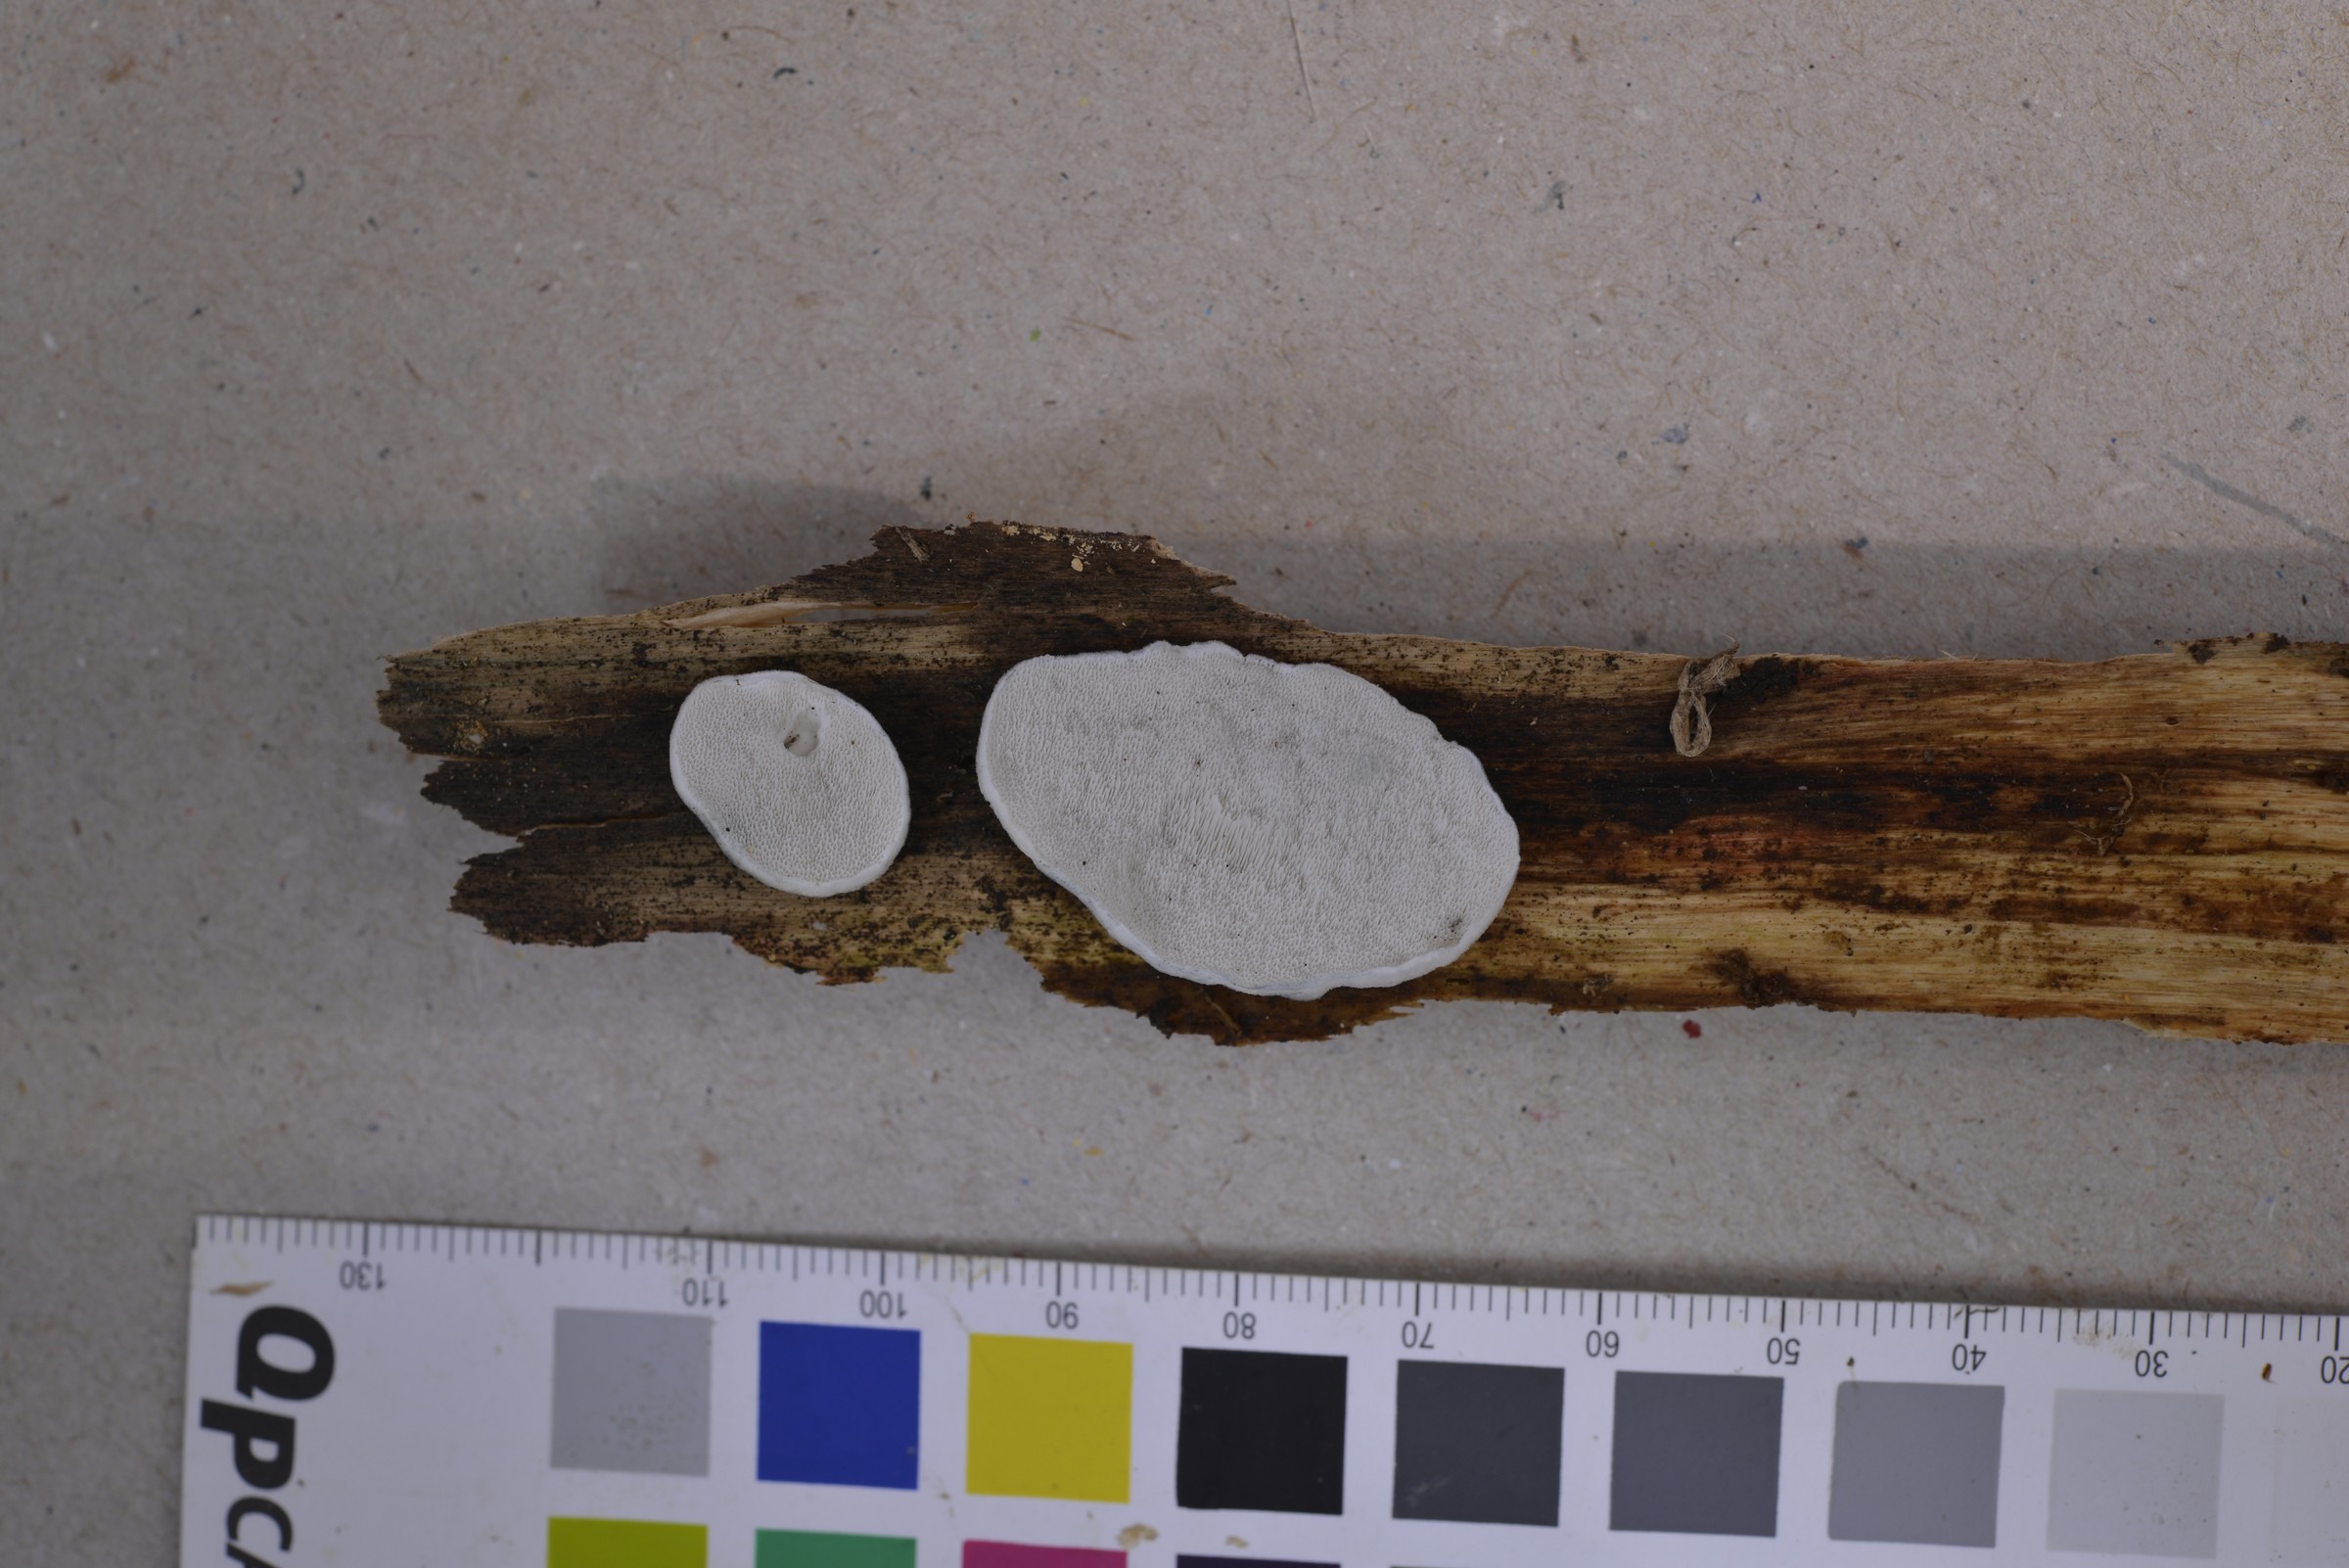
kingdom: Fungi
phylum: Basidiomycota
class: Agaricomycetes
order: Polyporales
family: Polyporaceae
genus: Cyanosporus
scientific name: Cyanosporus caesius
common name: Blue cheese polypore
